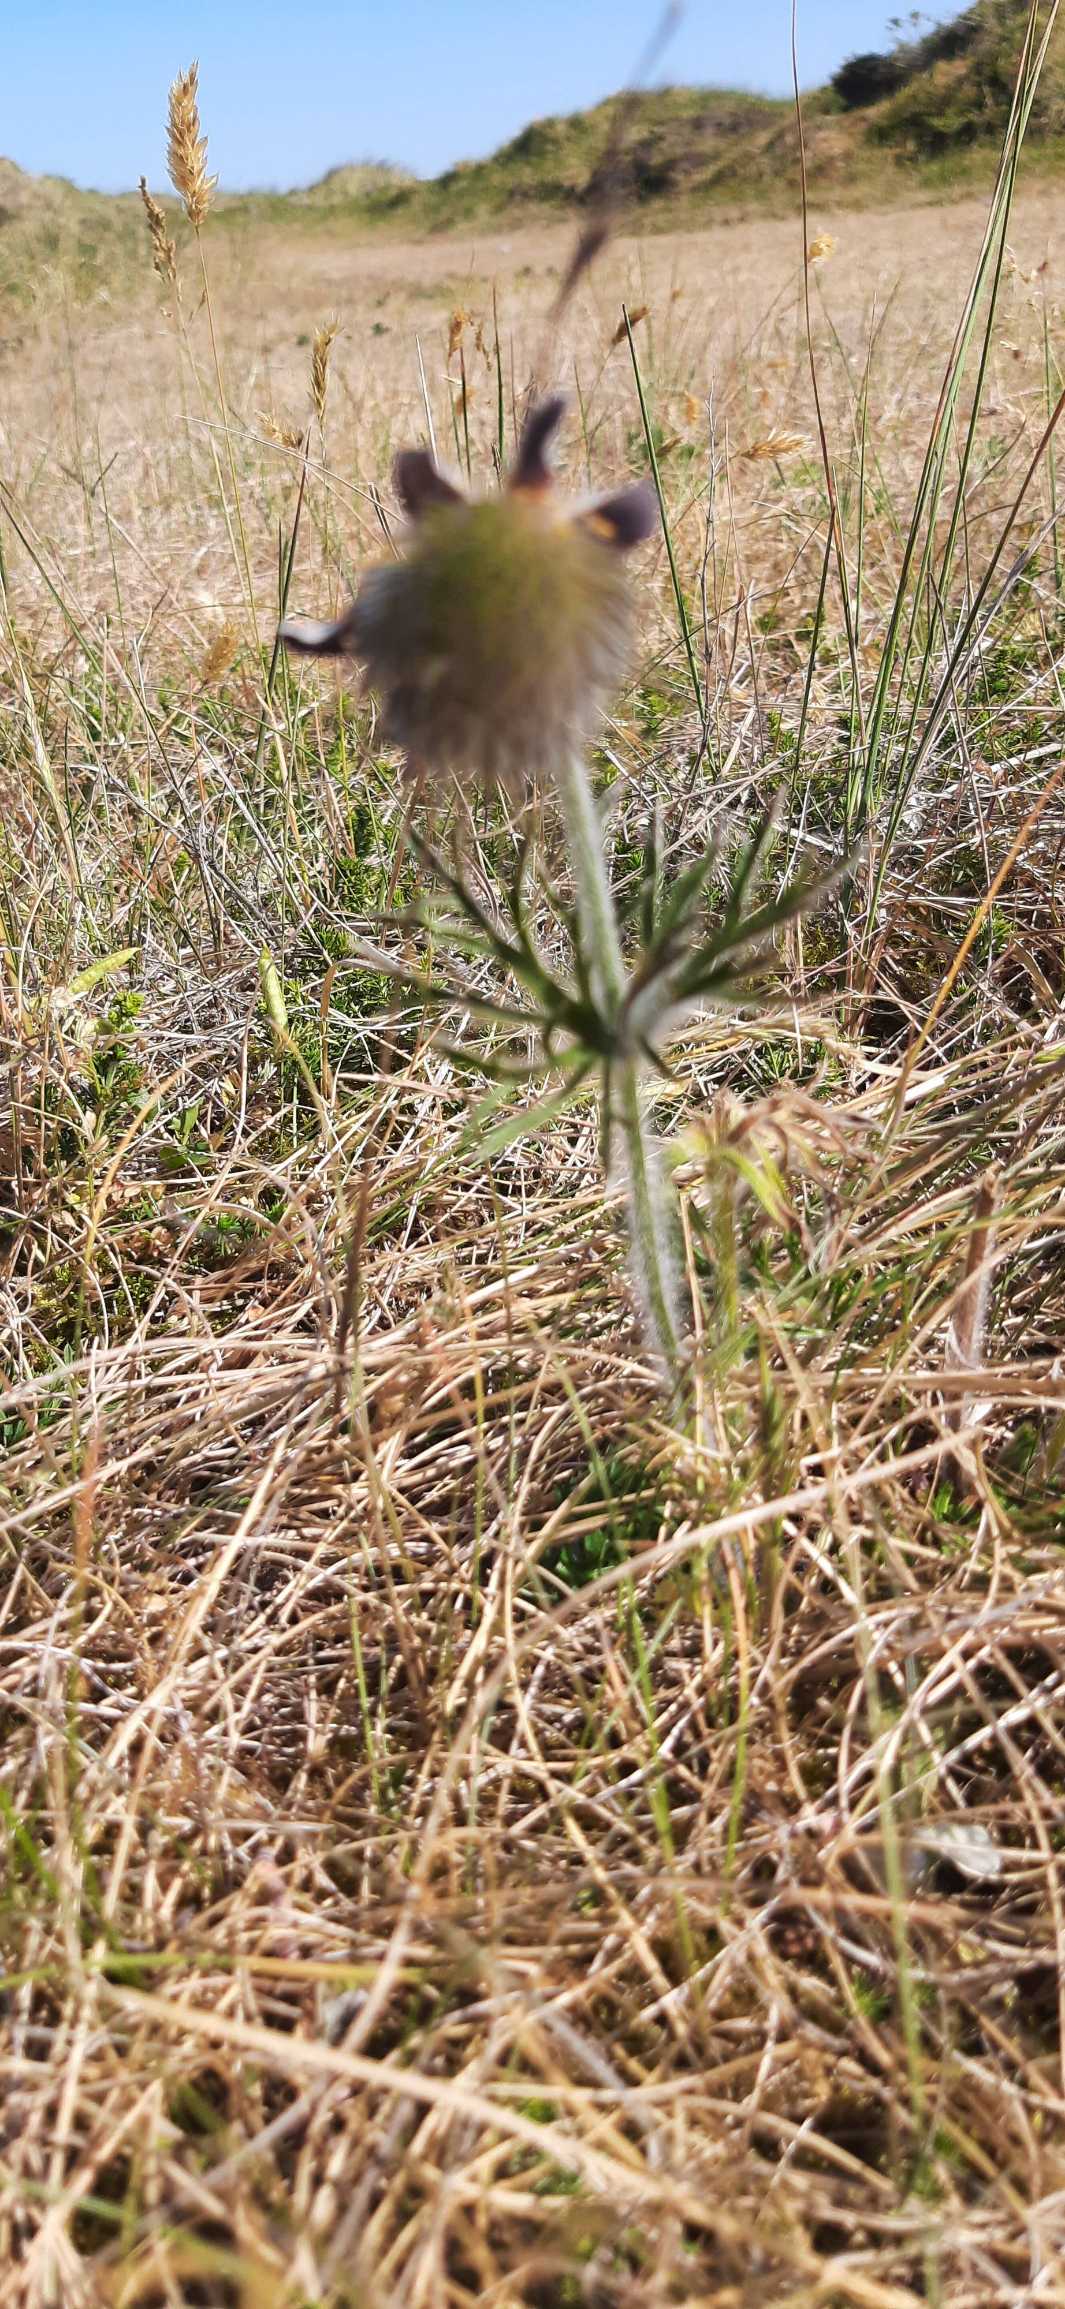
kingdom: Plantae
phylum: Tracheophyta
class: Magnoliopsida
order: Ranunculales
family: Ranunculaceae
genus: Pulsatilla
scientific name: Pulsatilla pratensis
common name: Nikkende kobjælde
